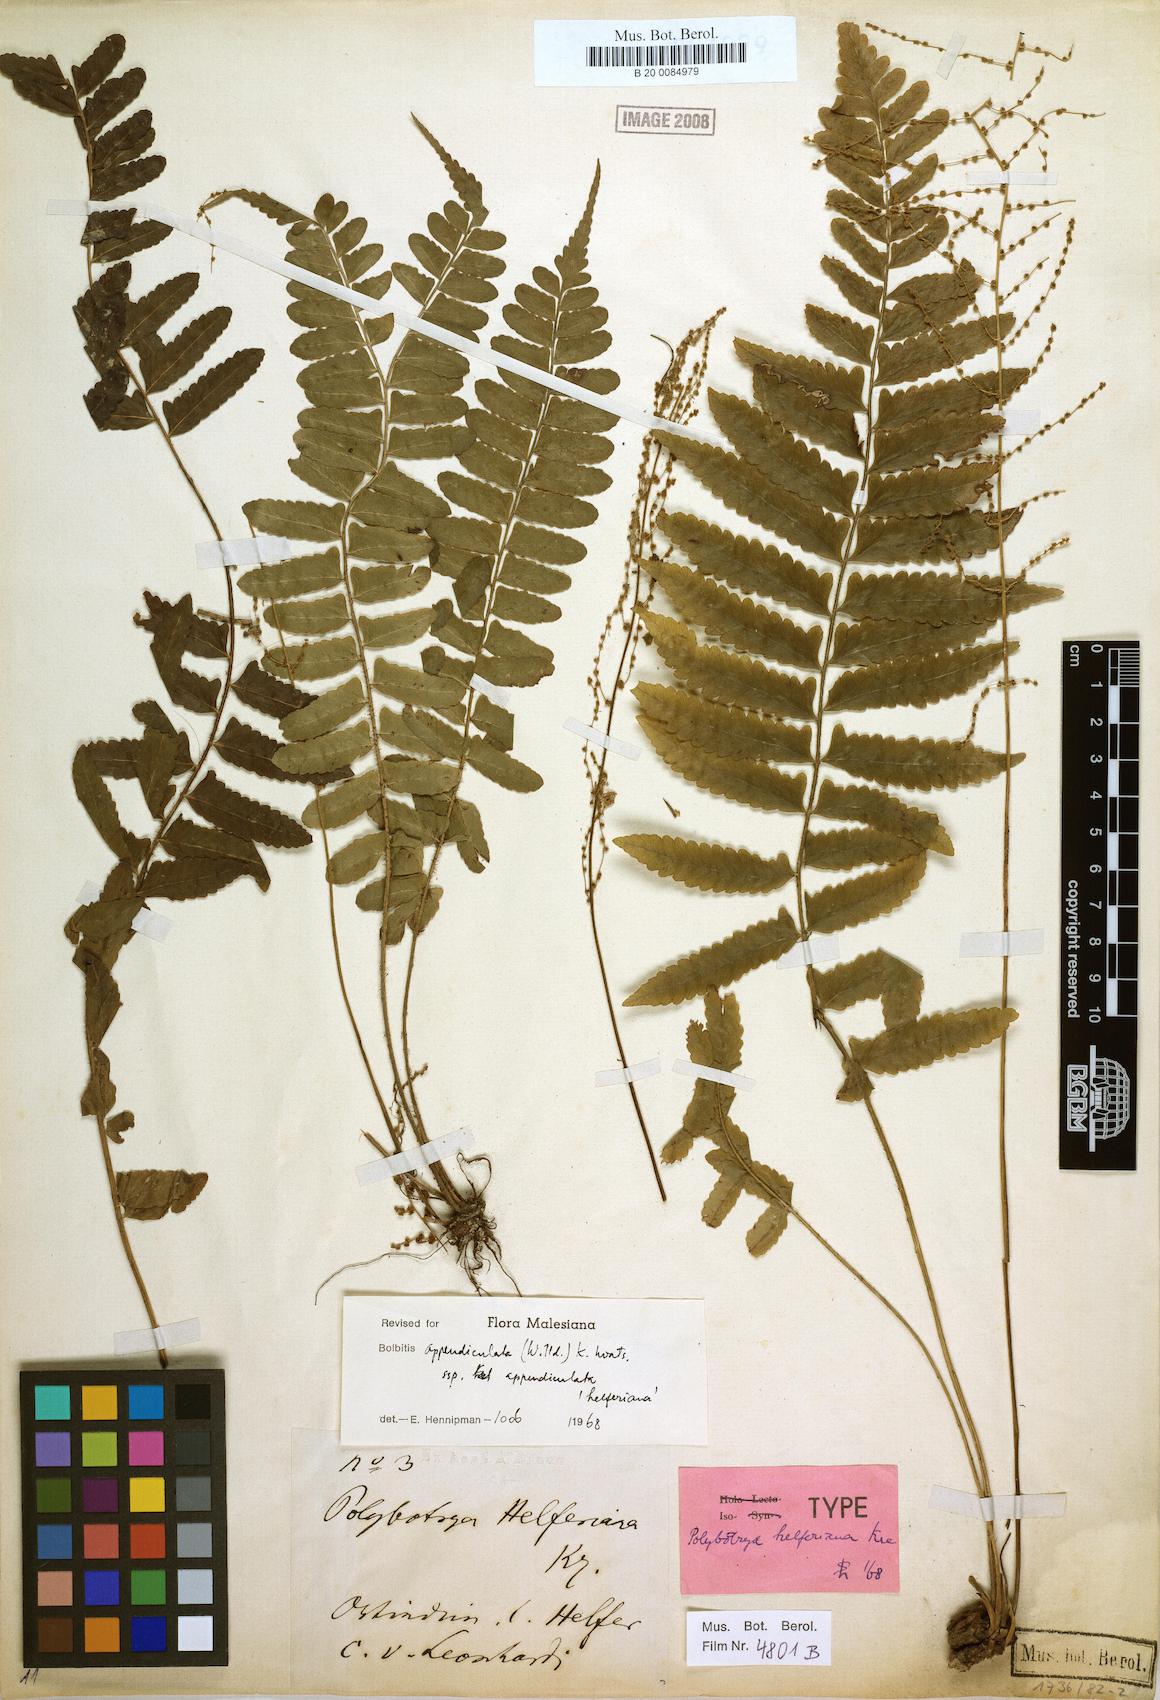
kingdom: Plantae
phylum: Tracheophyta
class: Polypodiopsida
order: Polypodiales
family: Dryopteridaceae
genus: Bolbitis
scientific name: Bolbitis appendiculata
